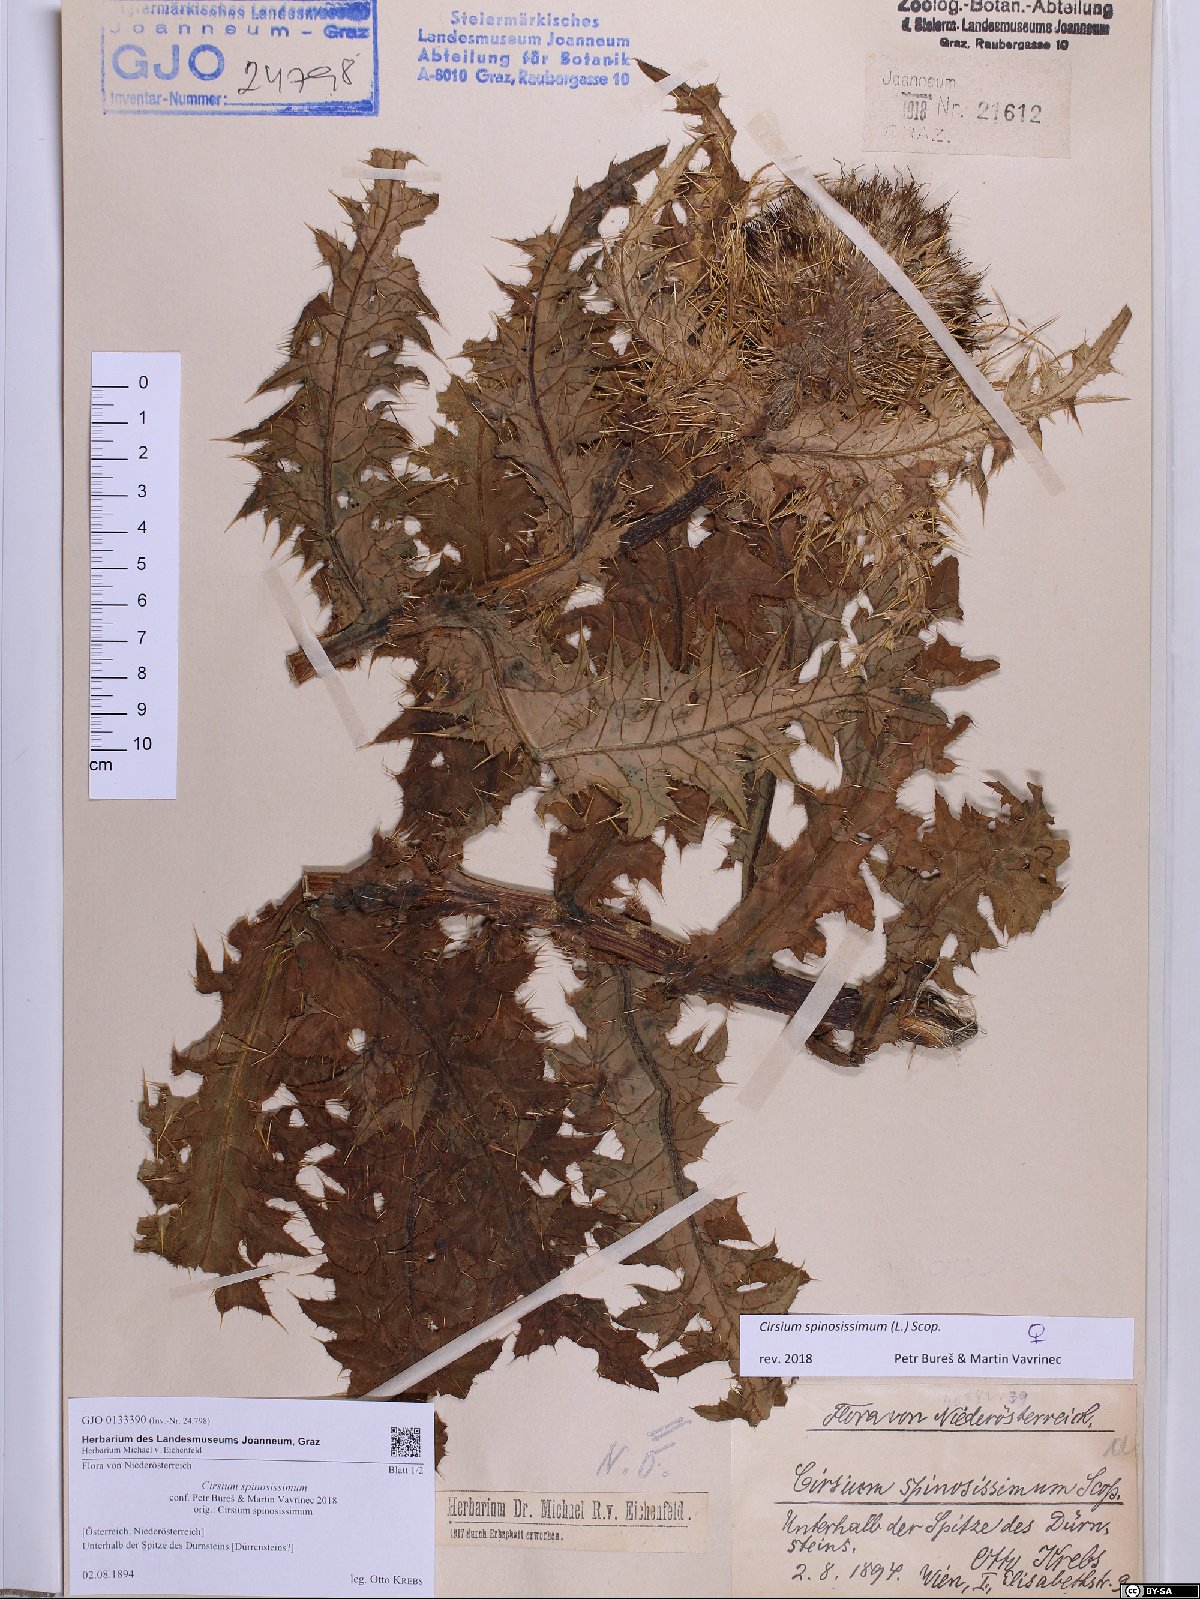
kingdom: Plantae
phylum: Tracheophyta
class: Magnoliopsida
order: Asterales
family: Asteraceae
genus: Cirsium
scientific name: Cirsium spinosissimum
